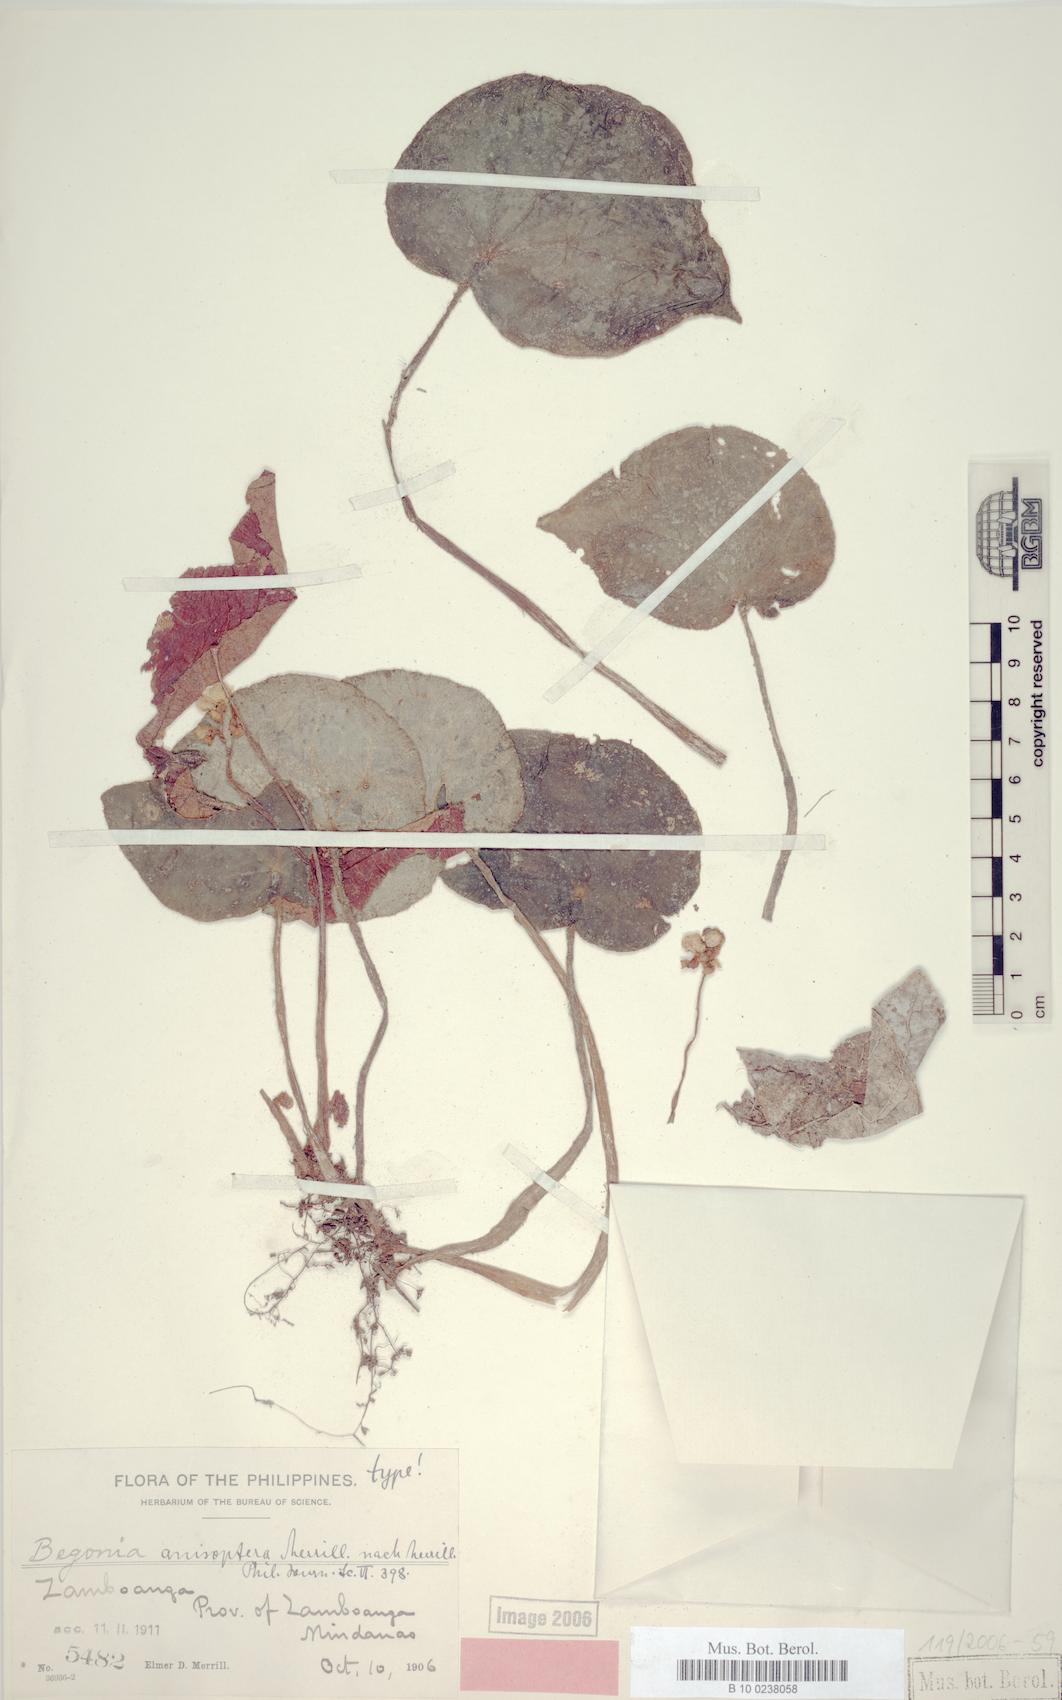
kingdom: Plantae
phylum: Tracheophyta
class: Magnoliopsida
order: Cucurbitales
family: Begoniaceae
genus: Begonia
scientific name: Begonia anisoptera
